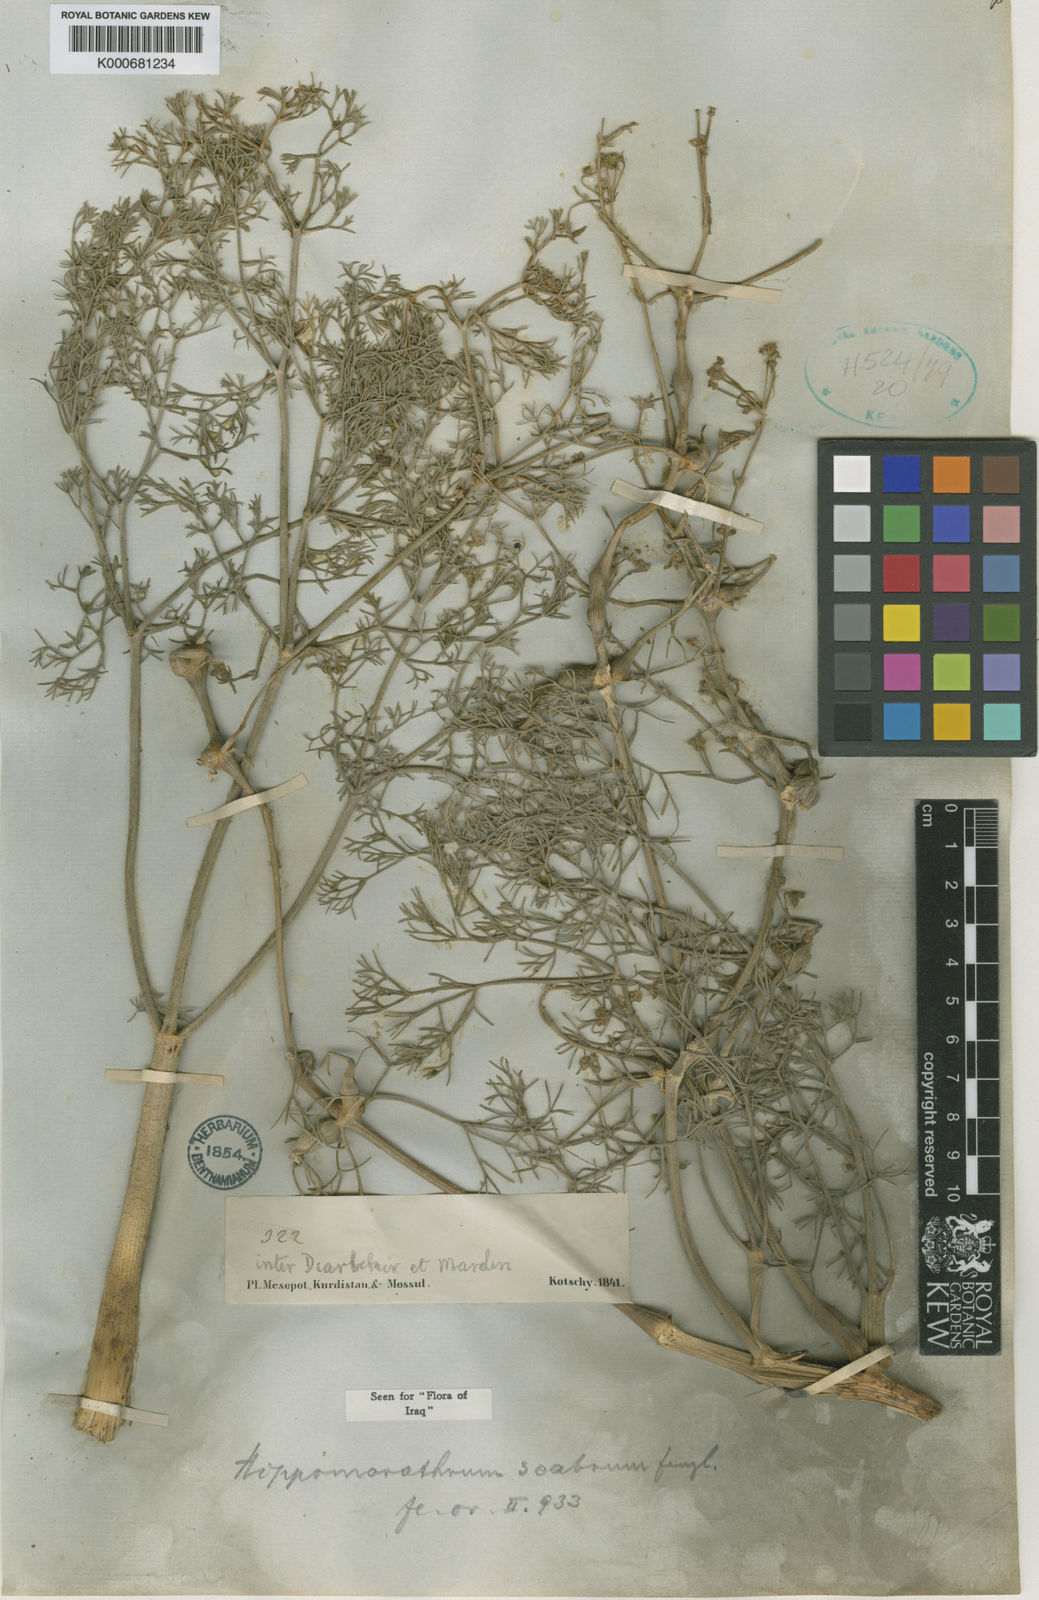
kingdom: Plantae
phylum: Tracheophyta
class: Magnoliopsida
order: Apiales
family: Apiaceae
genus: Bilacunaria
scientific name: Bilacunaria scabra
